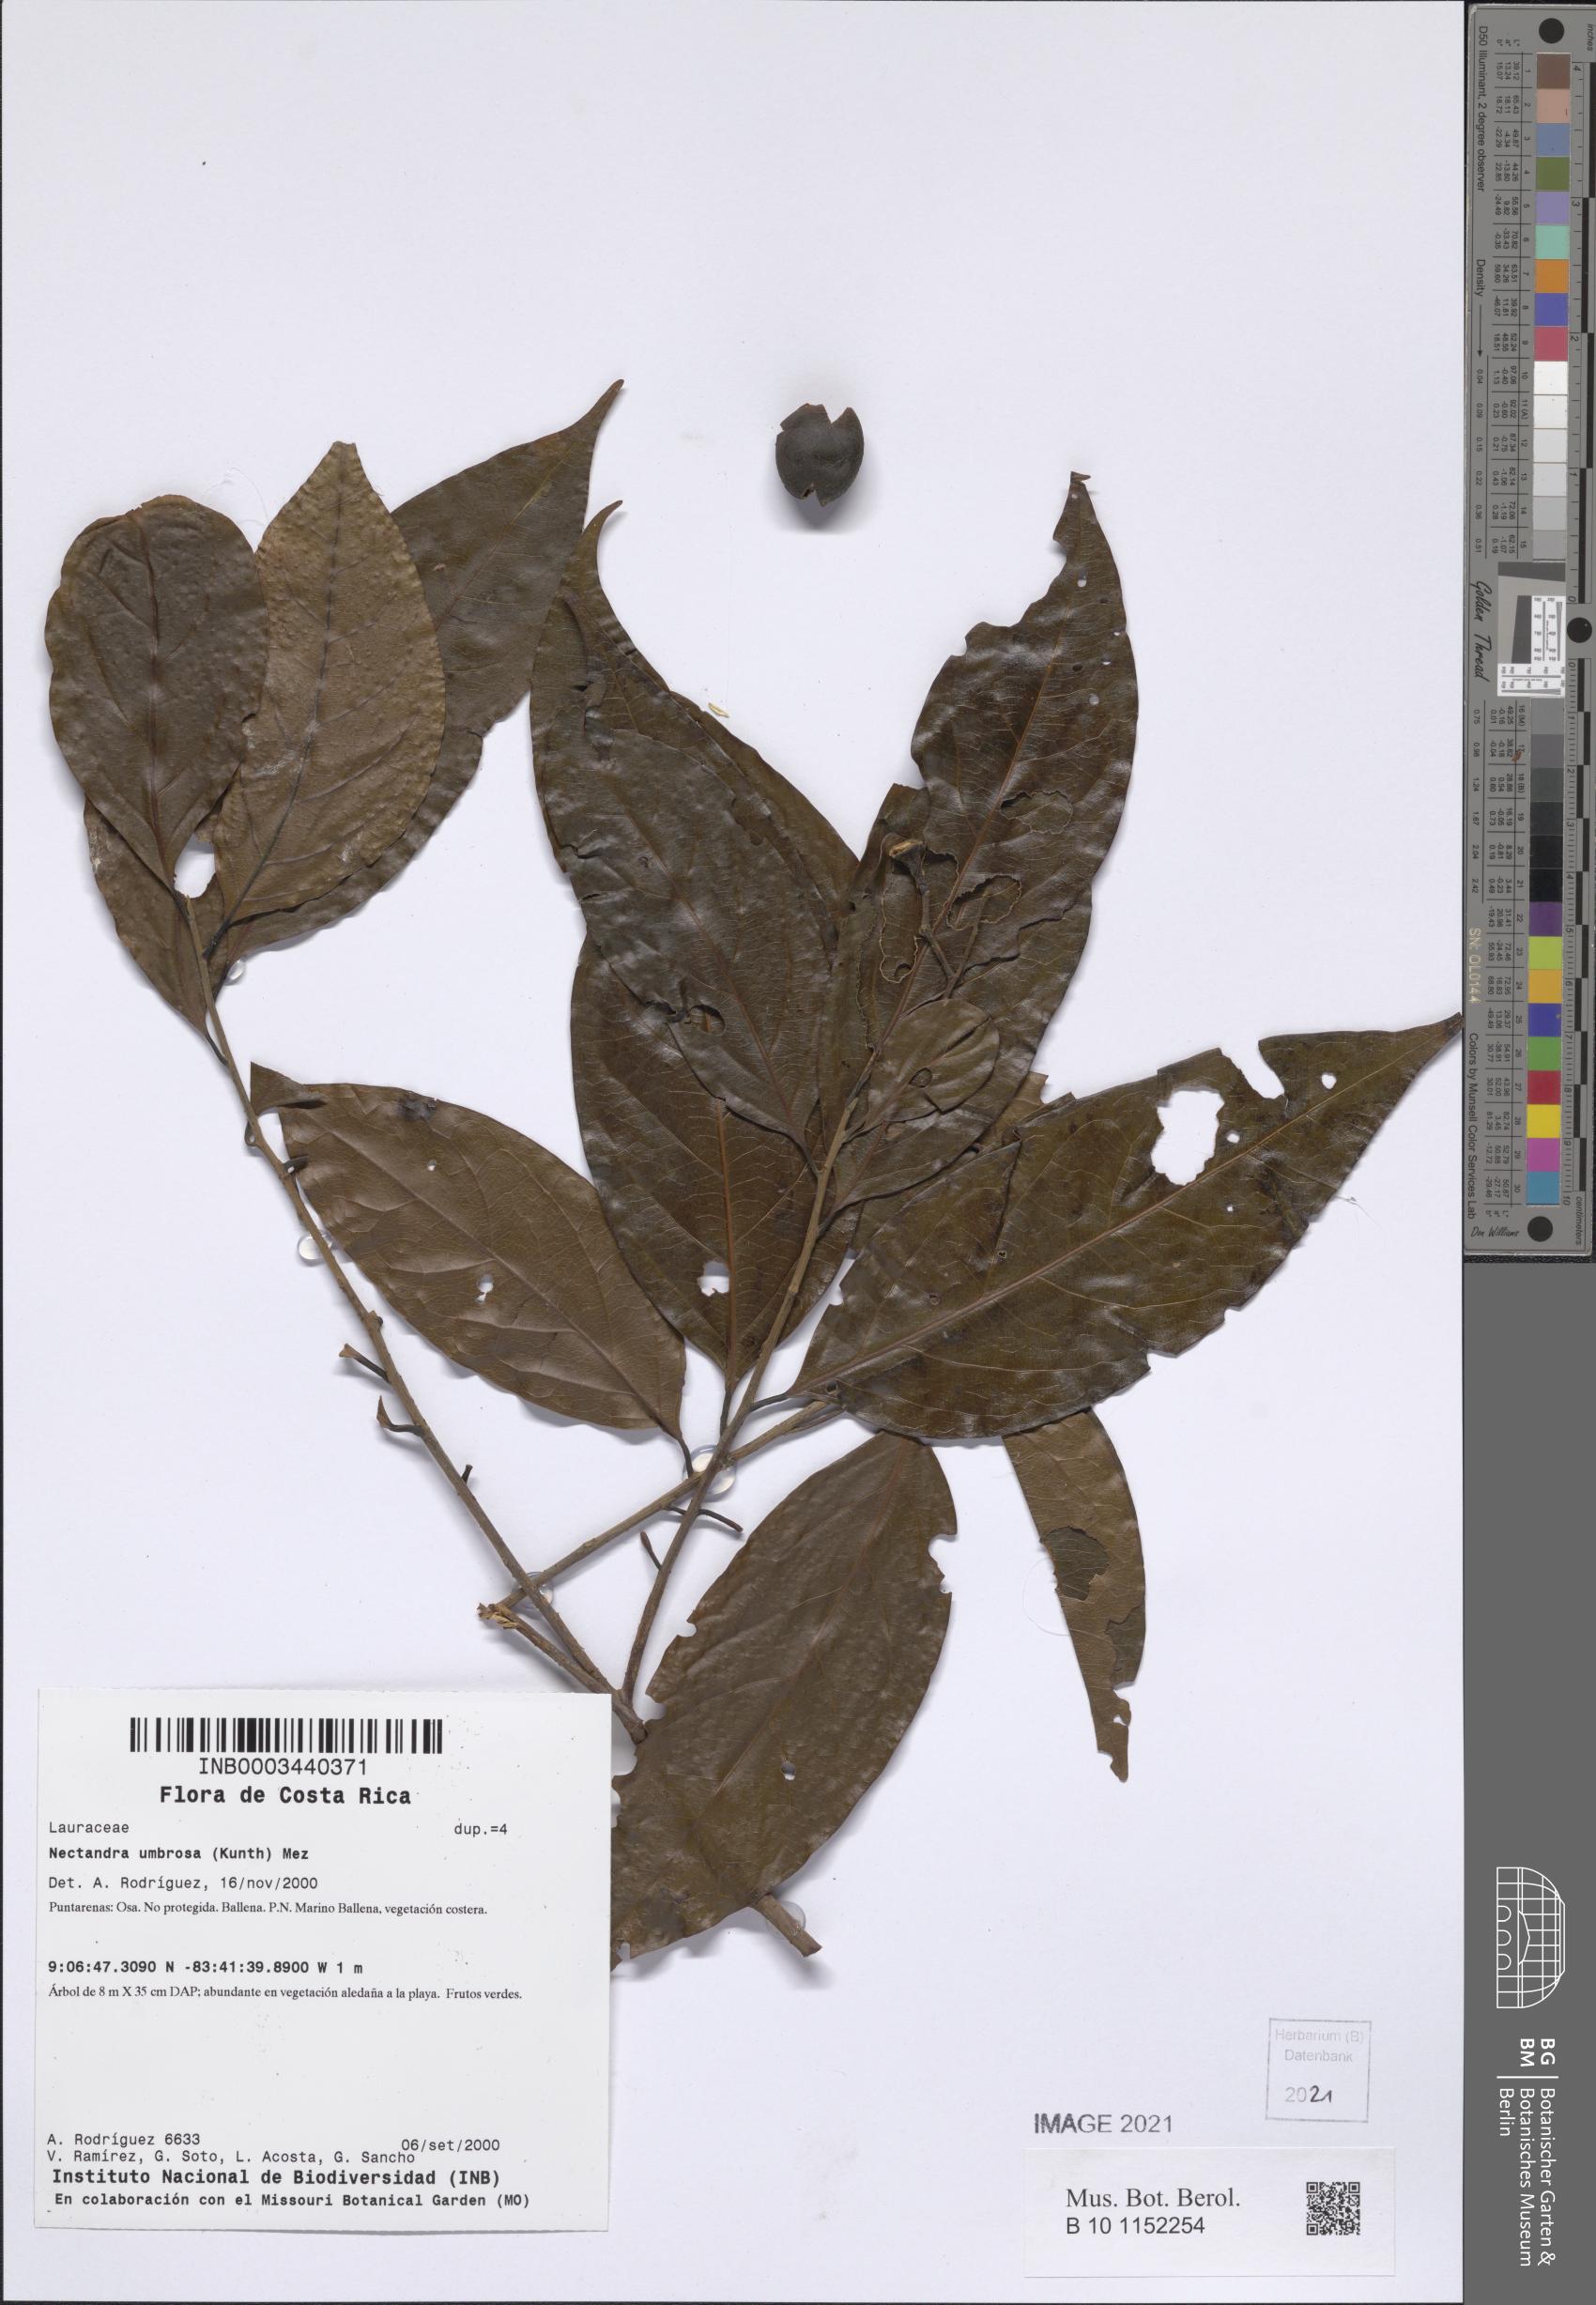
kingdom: Plantae
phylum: Tracheophyta
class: Magnoliopsida
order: Laurales
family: Lauraceae
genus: Damburneya
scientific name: Damburneya umbrosa
